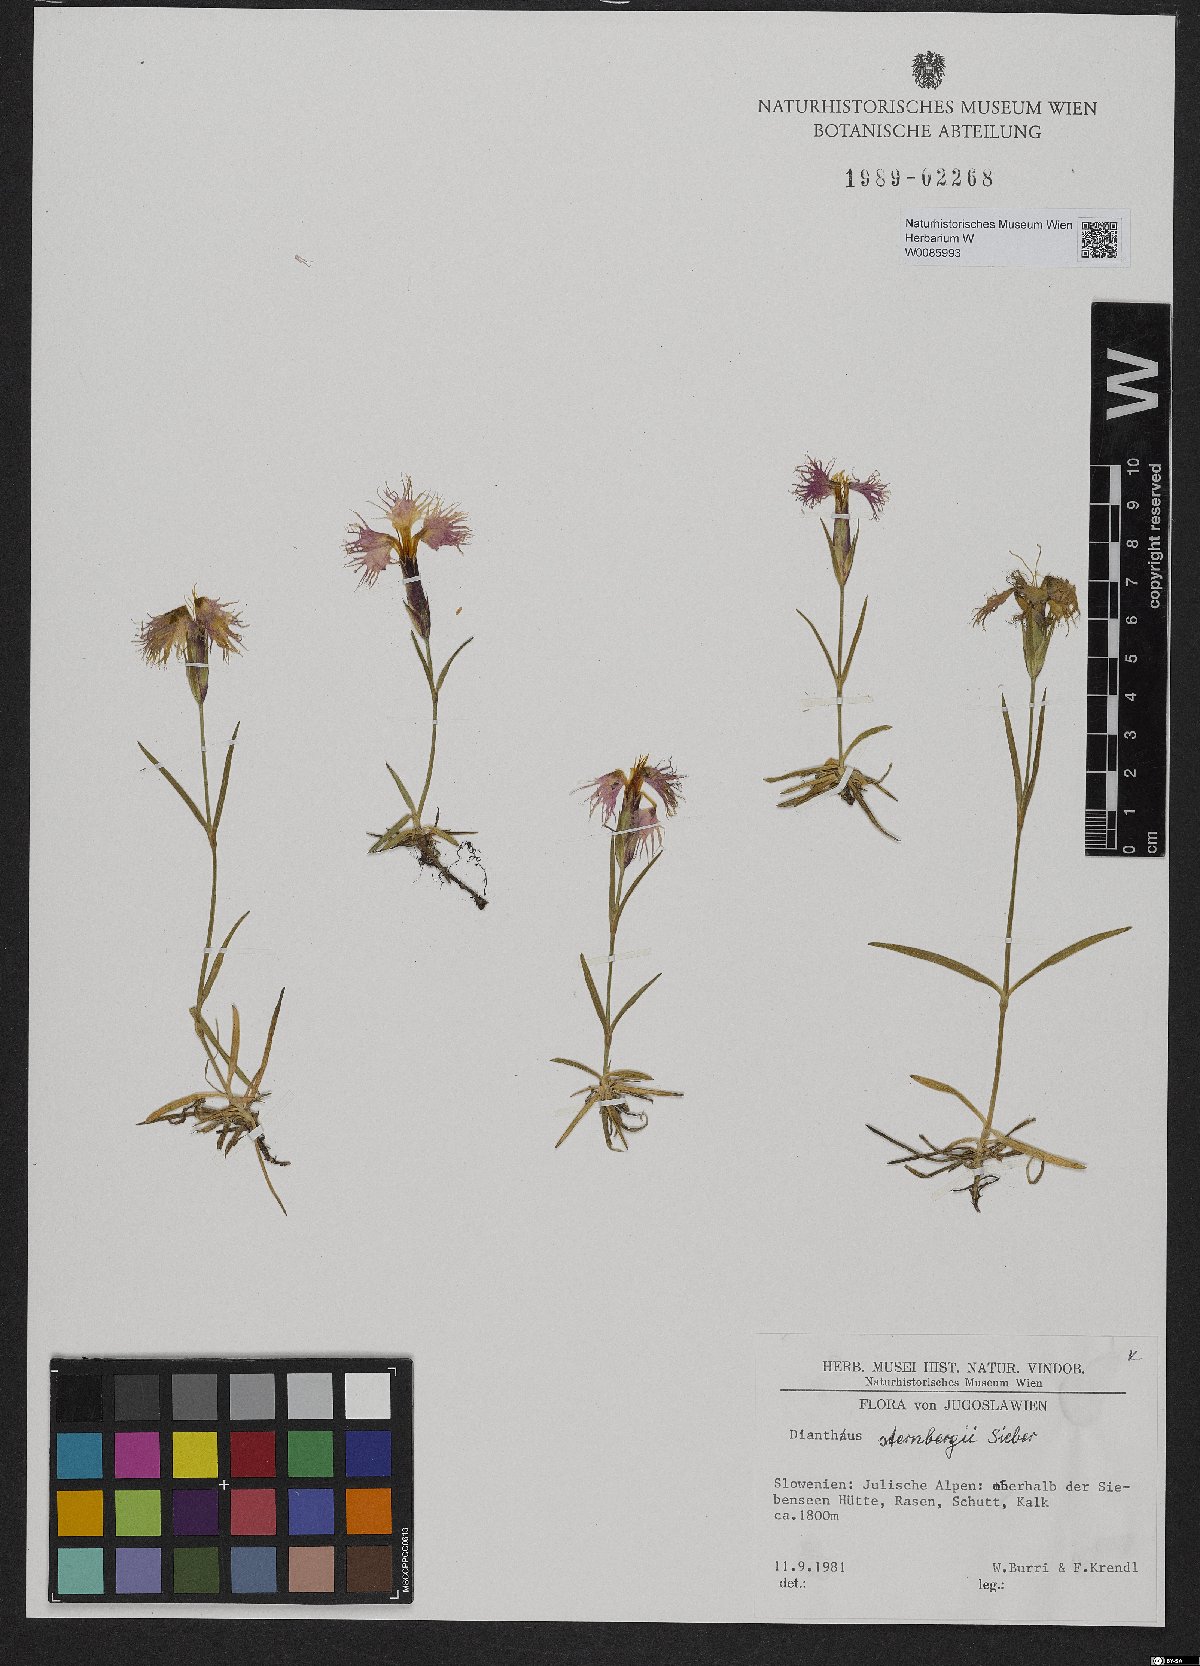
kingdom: Plantae
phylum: Tracheophyta
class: Magnoliopsida
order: Caryophyllales
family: Caryophyllaceae
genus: Dianthus
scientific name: Dianthus sternbergii
